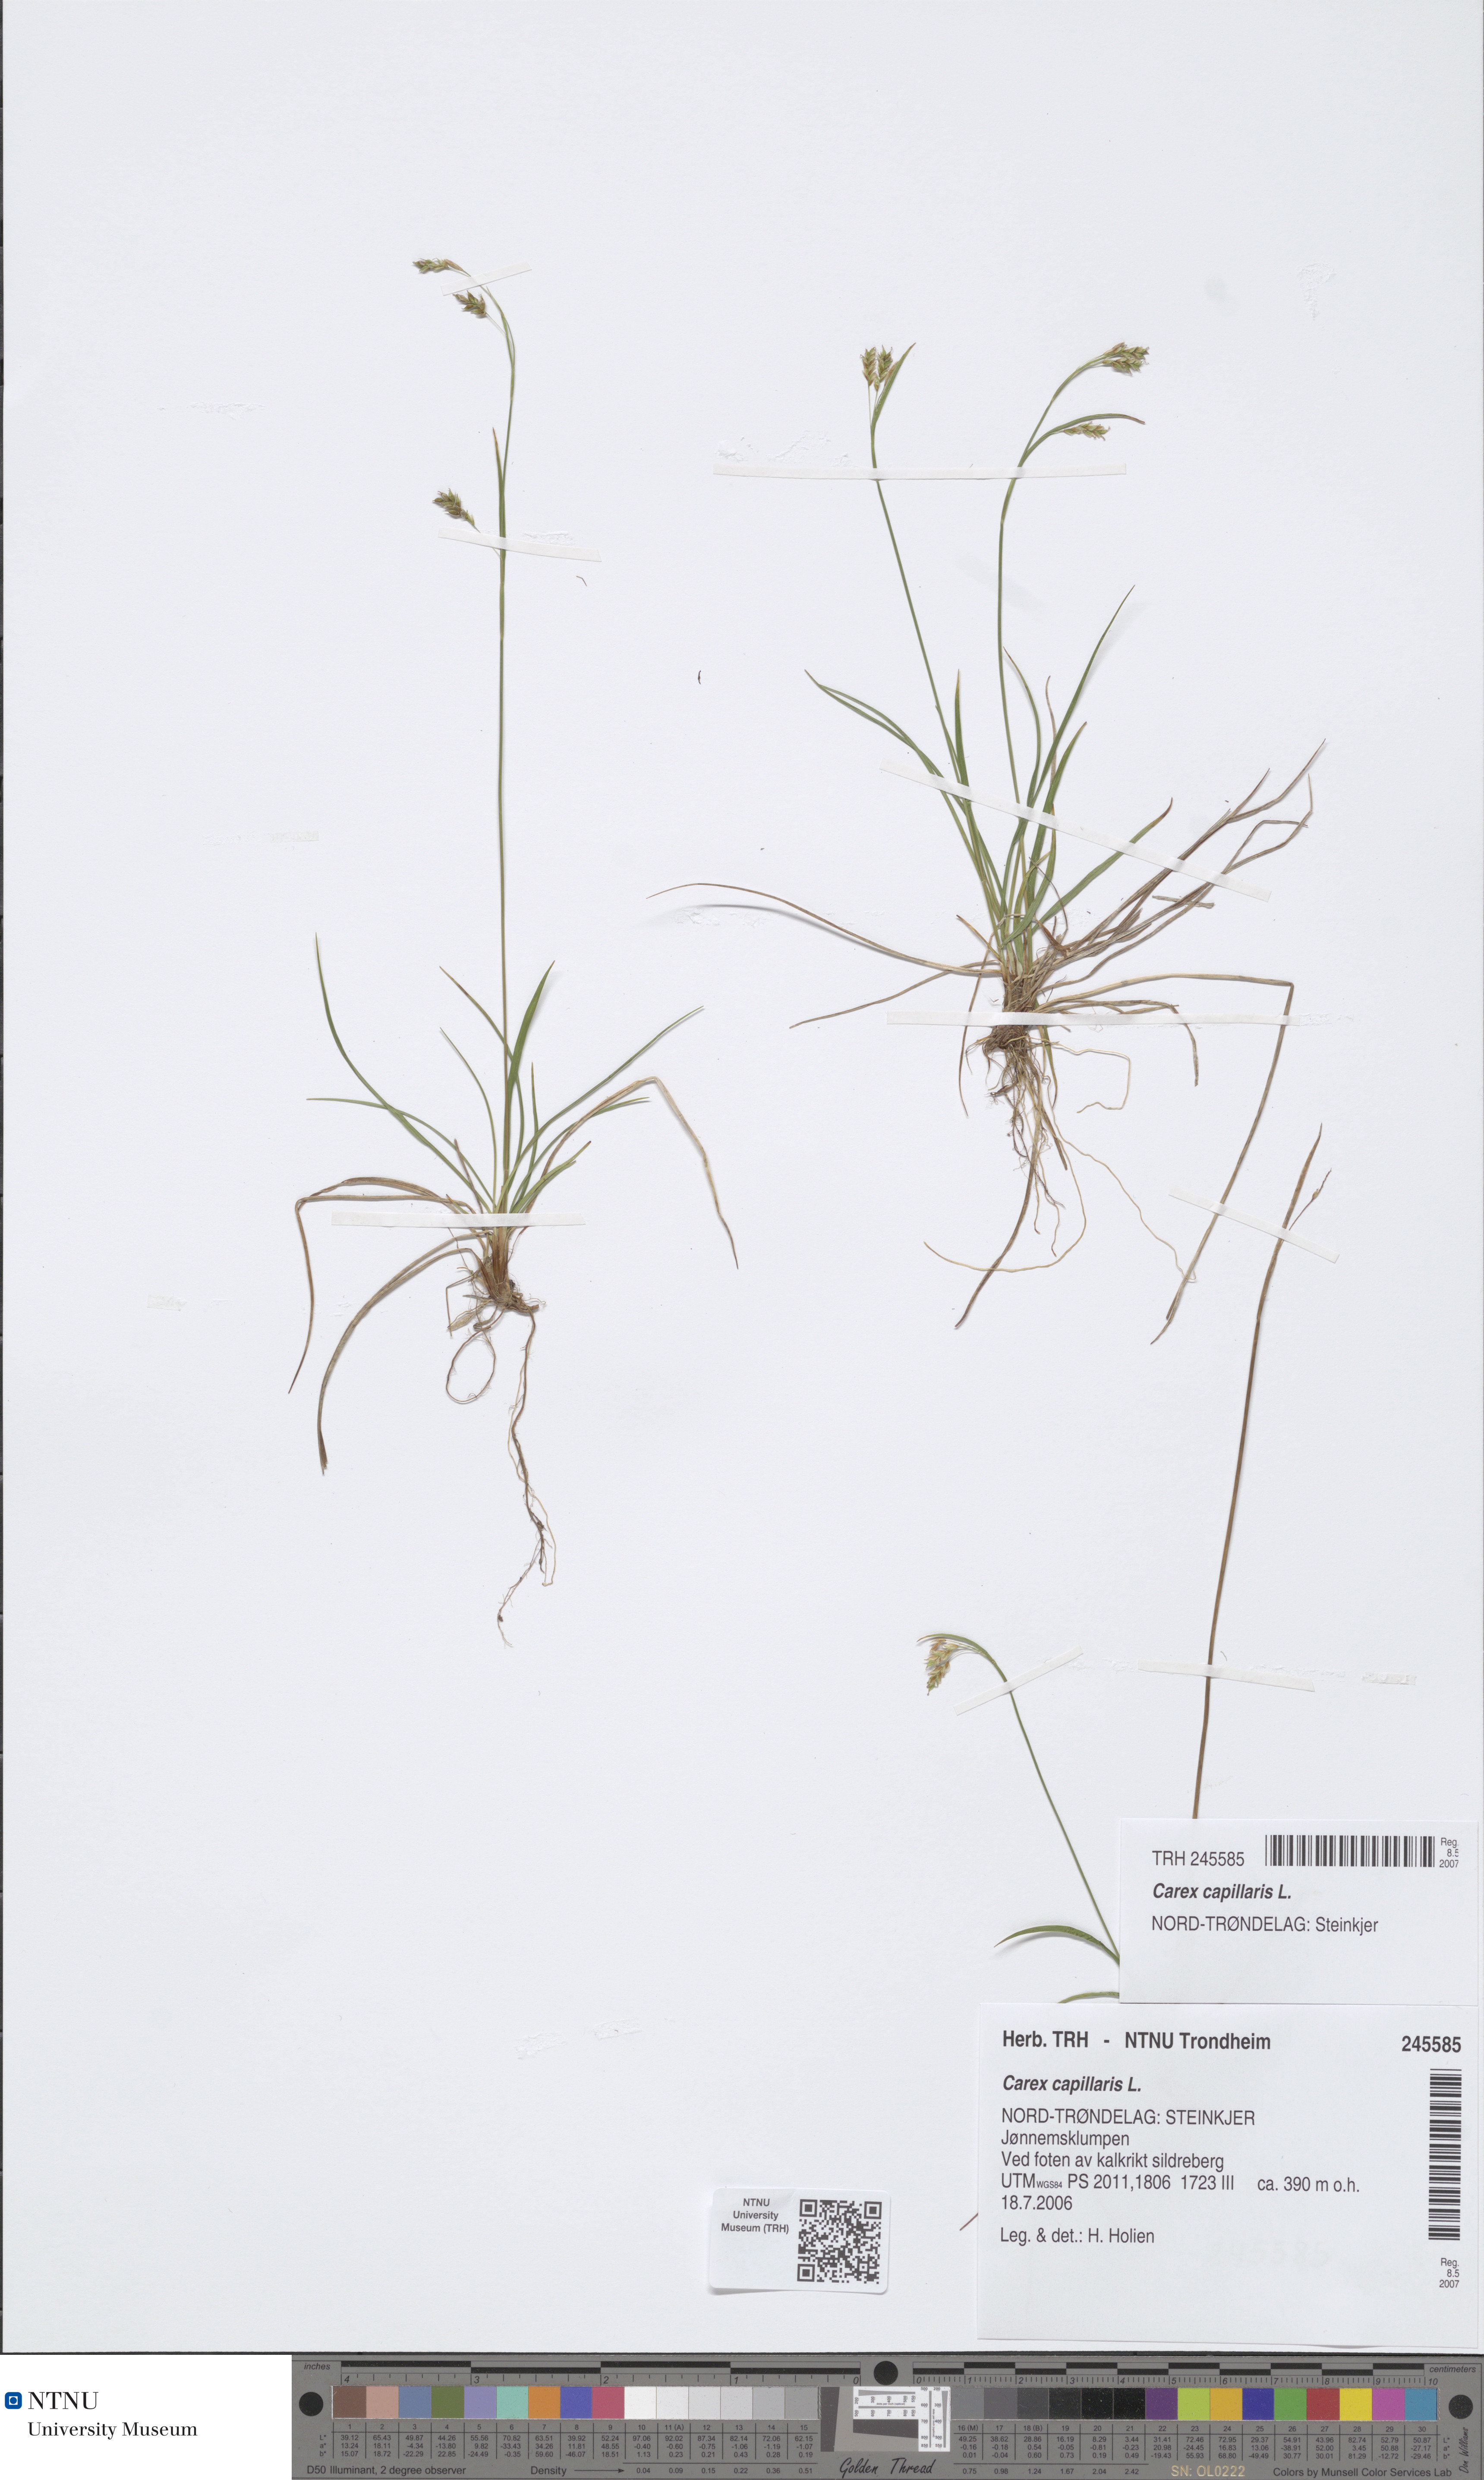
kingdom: Plantae
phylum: Tracheophyta
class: Liliopsida
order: Poales
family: Cyperaceae
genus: Carex
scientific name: Carex capillaris
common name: Hair sedge
